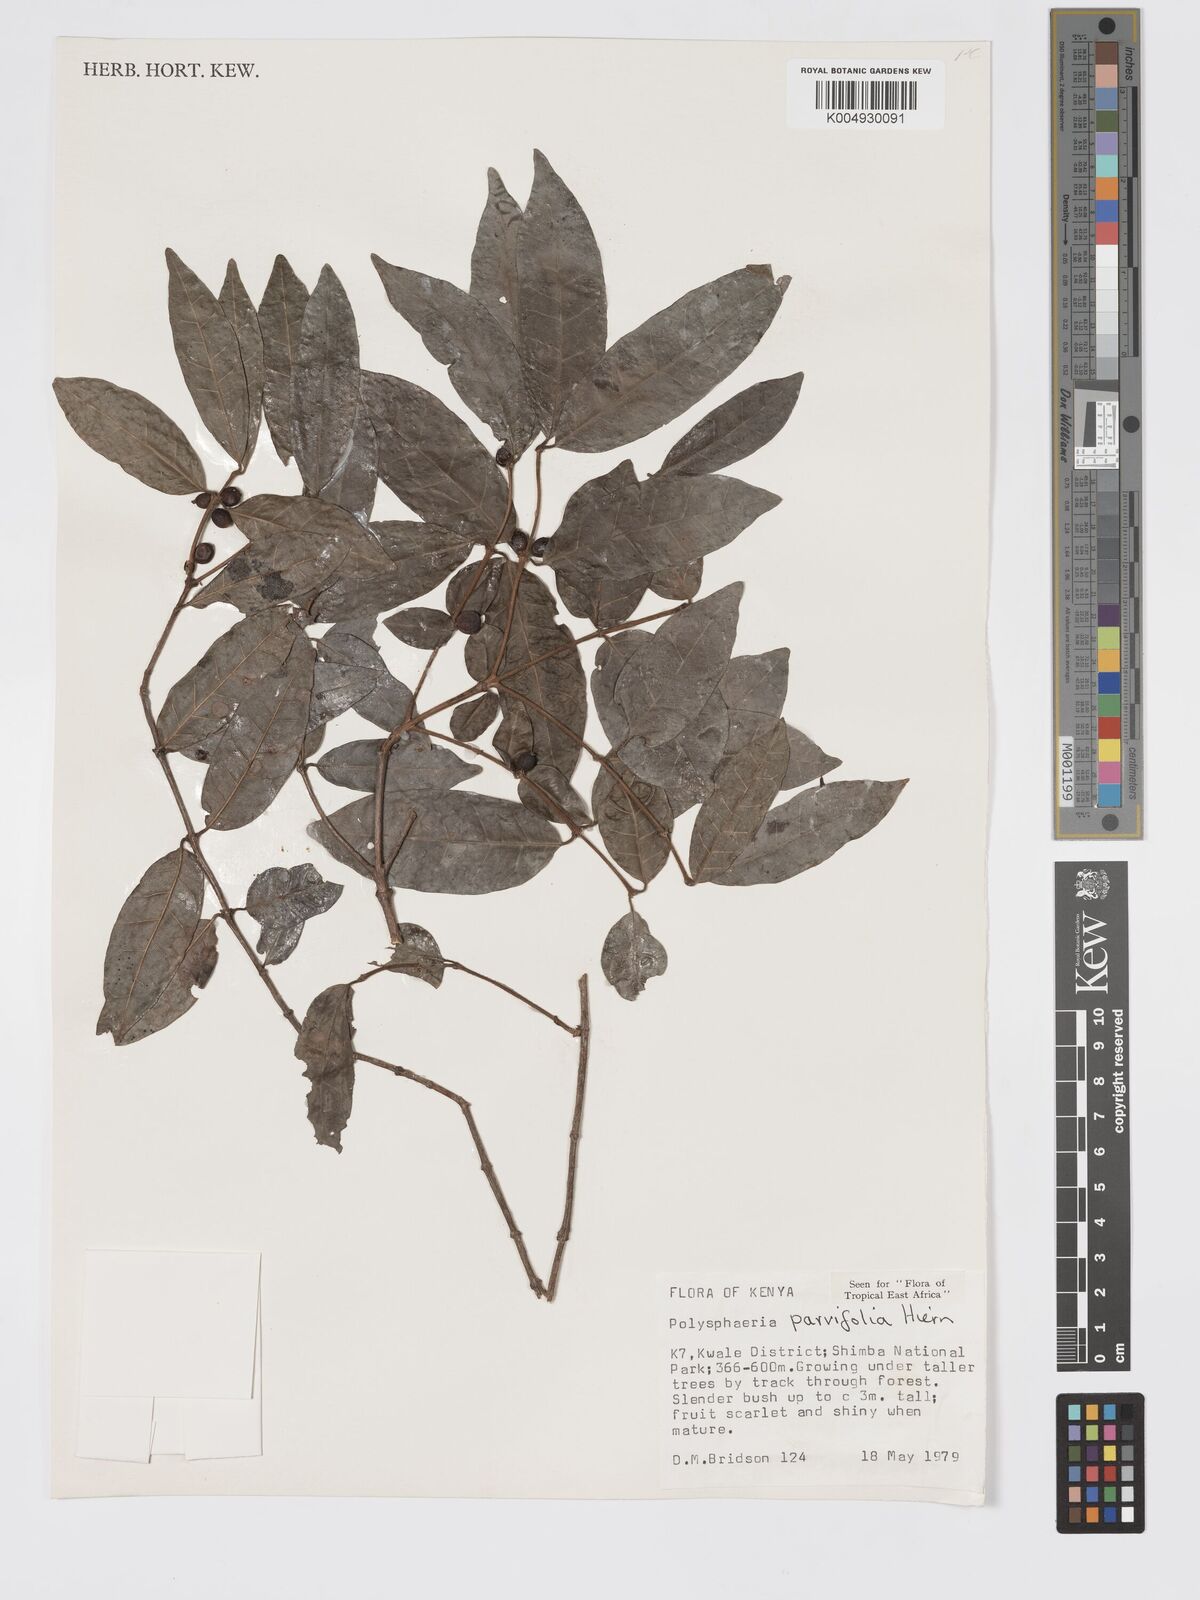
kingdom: Plantae
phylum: Tracheophyta
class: Magnoliopsida
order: Gentianales
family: Rubiaceae
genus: Eumachia
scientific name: Eumachia parviflora
